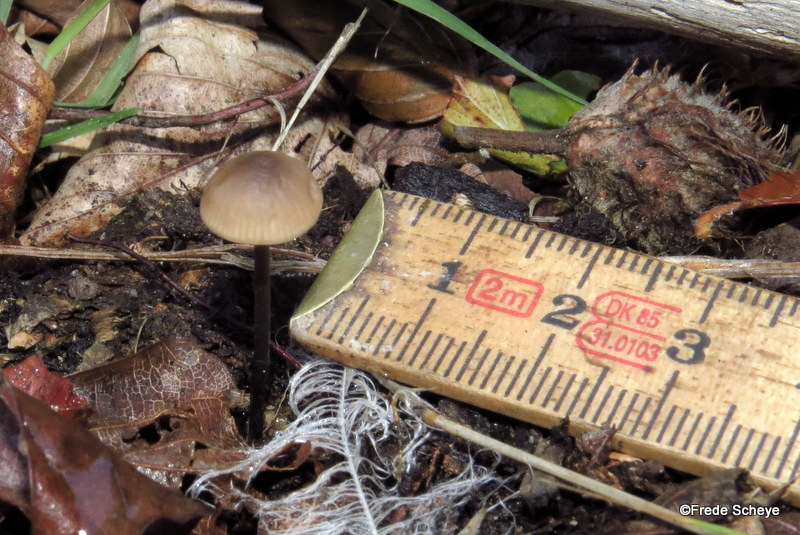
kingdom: Fungi
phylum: Basidiomycota
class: Agaricomycetes
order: Agaricales
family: Omphalotaceae
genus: Mycetinis
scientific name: Mycetinis alliaceus
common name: stor løghat
